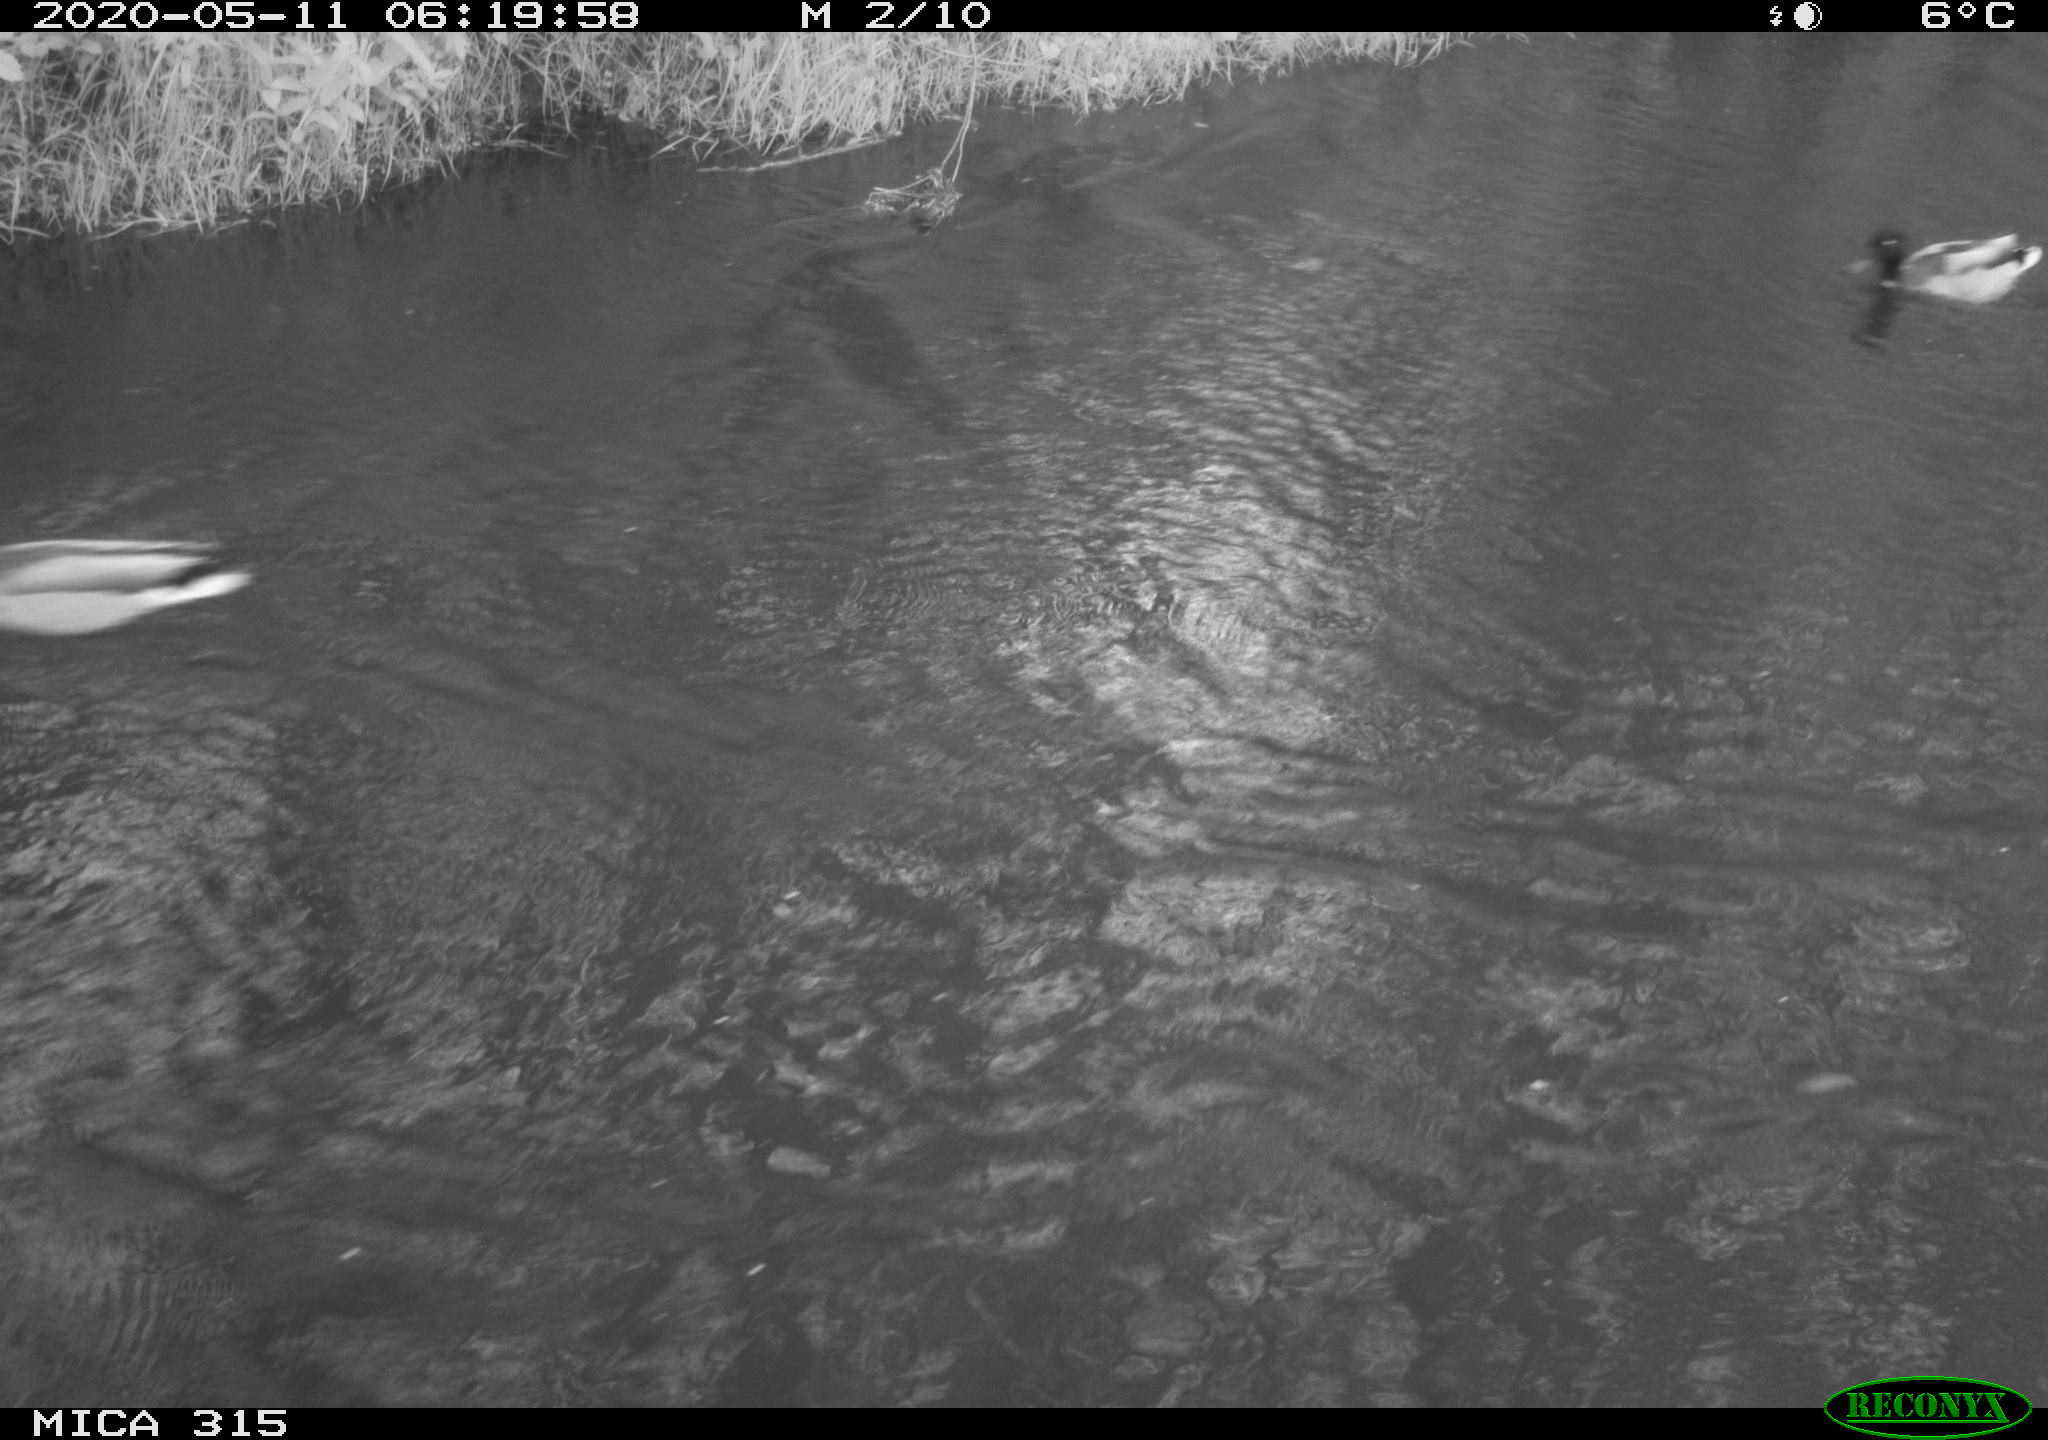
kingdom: Animalia
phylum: Chordata
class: Aves
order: Anseriformes
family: Anatidae
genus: Anas
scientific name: Anas platyrhynchos
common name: Mallard
